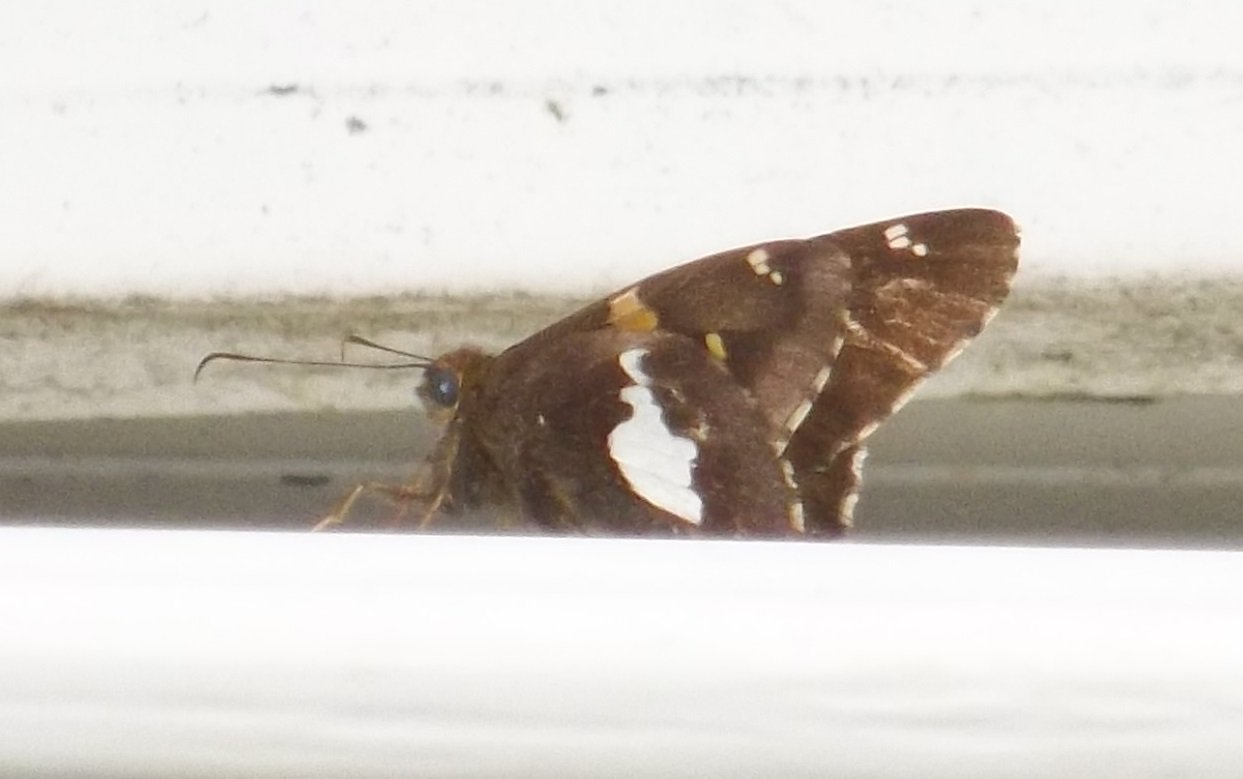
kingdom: Animalia
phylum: Arthropoda
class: Insecta
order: Lepidoptera
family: Hesperiidae
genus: Epargyreus
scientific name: Epargyreus clarus
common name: Silver-spotted Skipper
